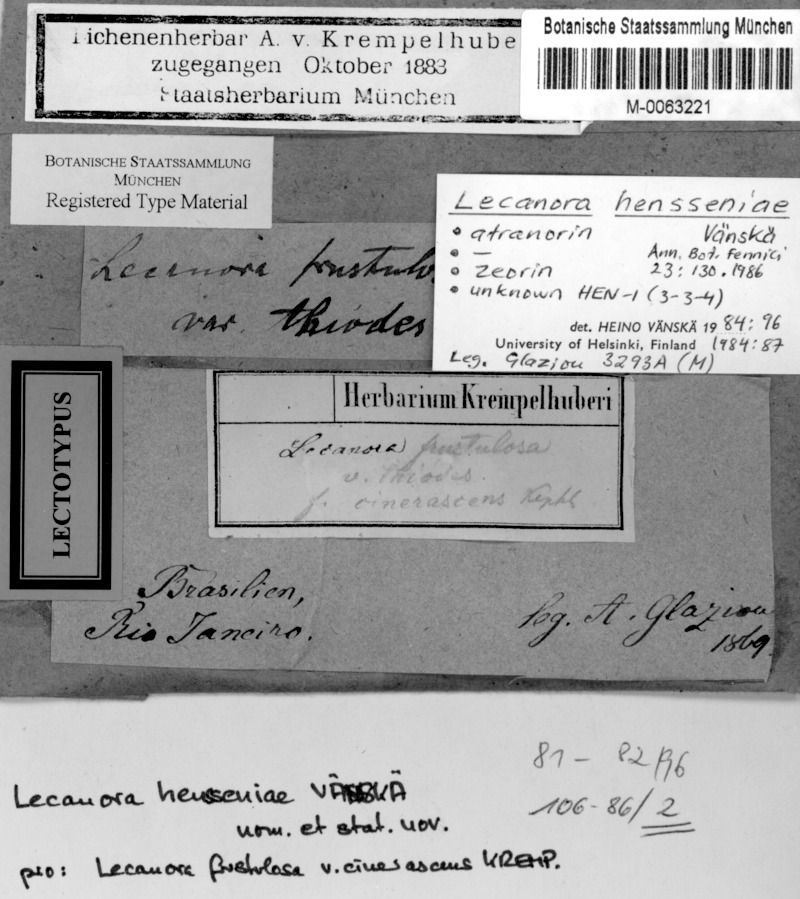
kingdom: Fungi
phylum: Ascomycota
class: Lecanoromycetes
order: Lecanorales
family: Lecanoraceae
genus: Lecanora
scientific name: Lecanora hensseniae
